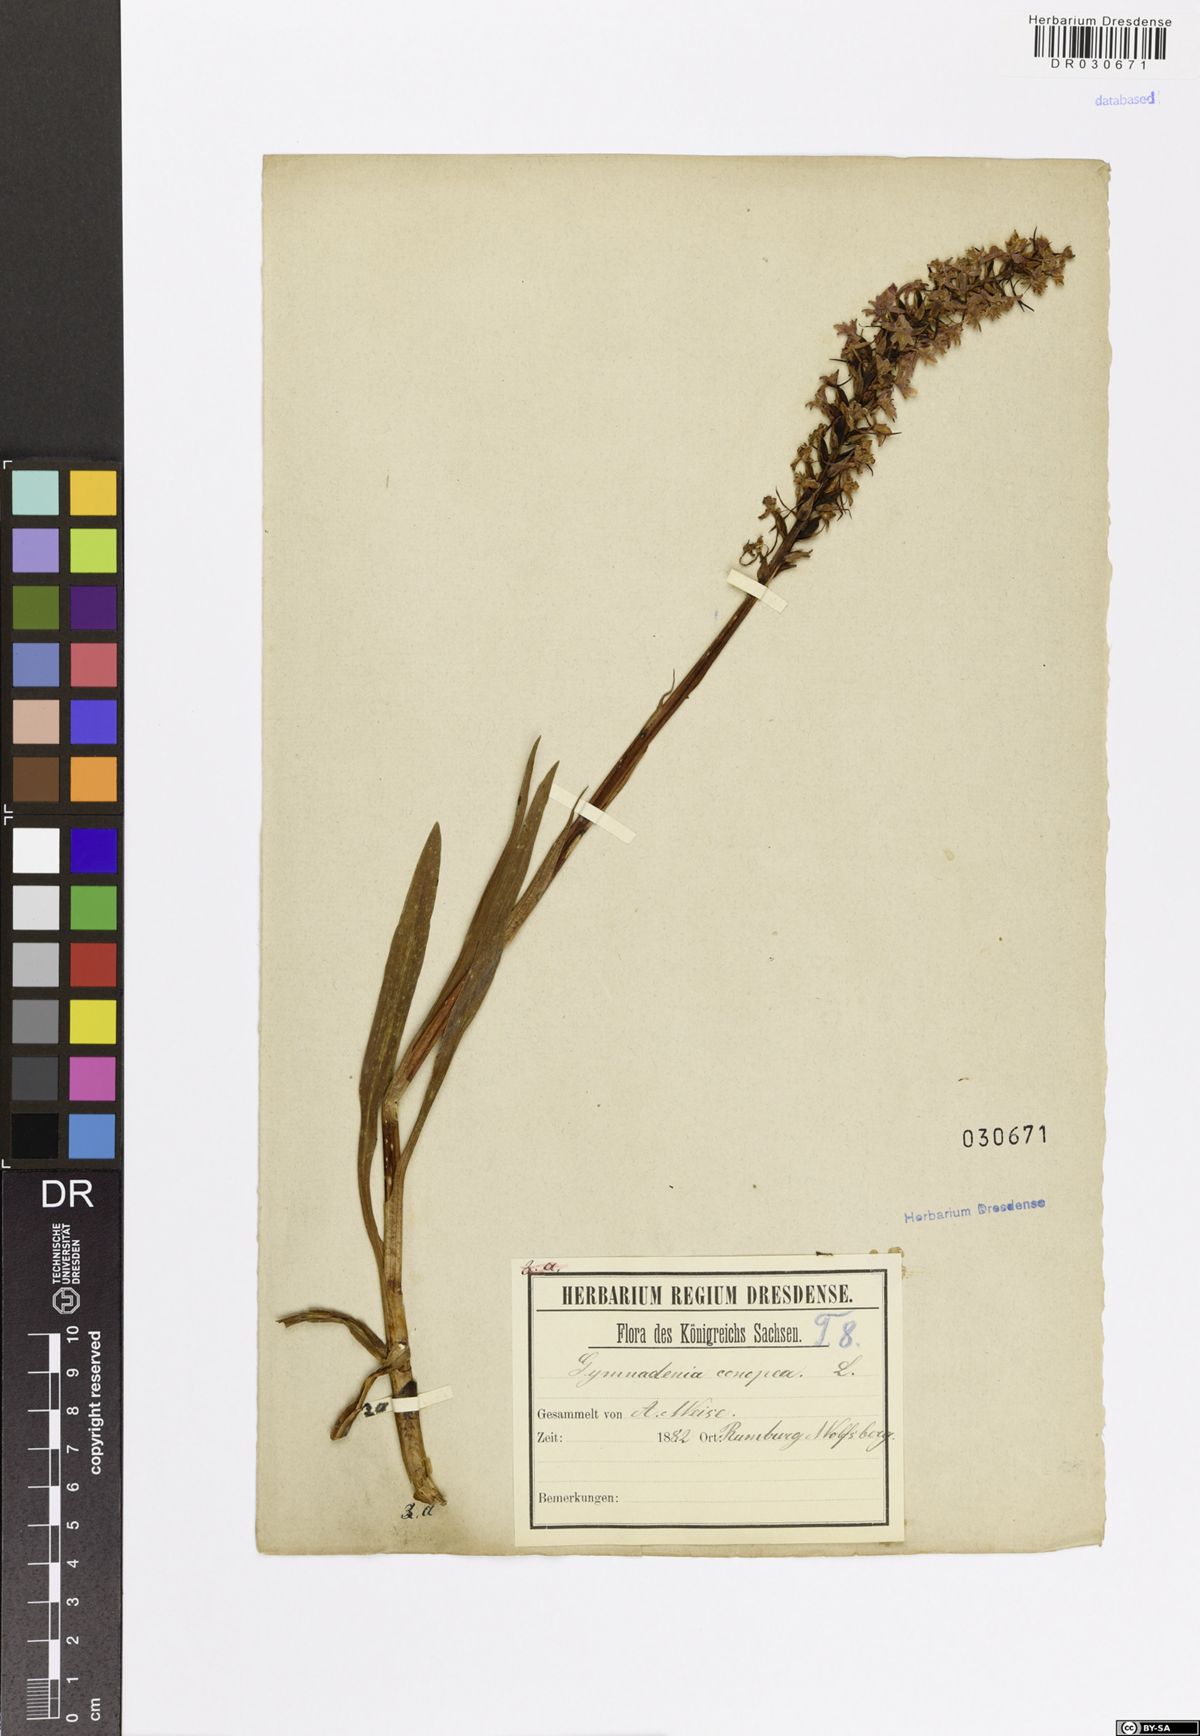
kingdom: Plantae
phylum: Tracheophyta
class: Liliopsida
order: Asparagales
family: Orchidaceae
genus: Gymnadenia
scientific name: Gymnadenia conopsea
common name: Fragrant orchid
